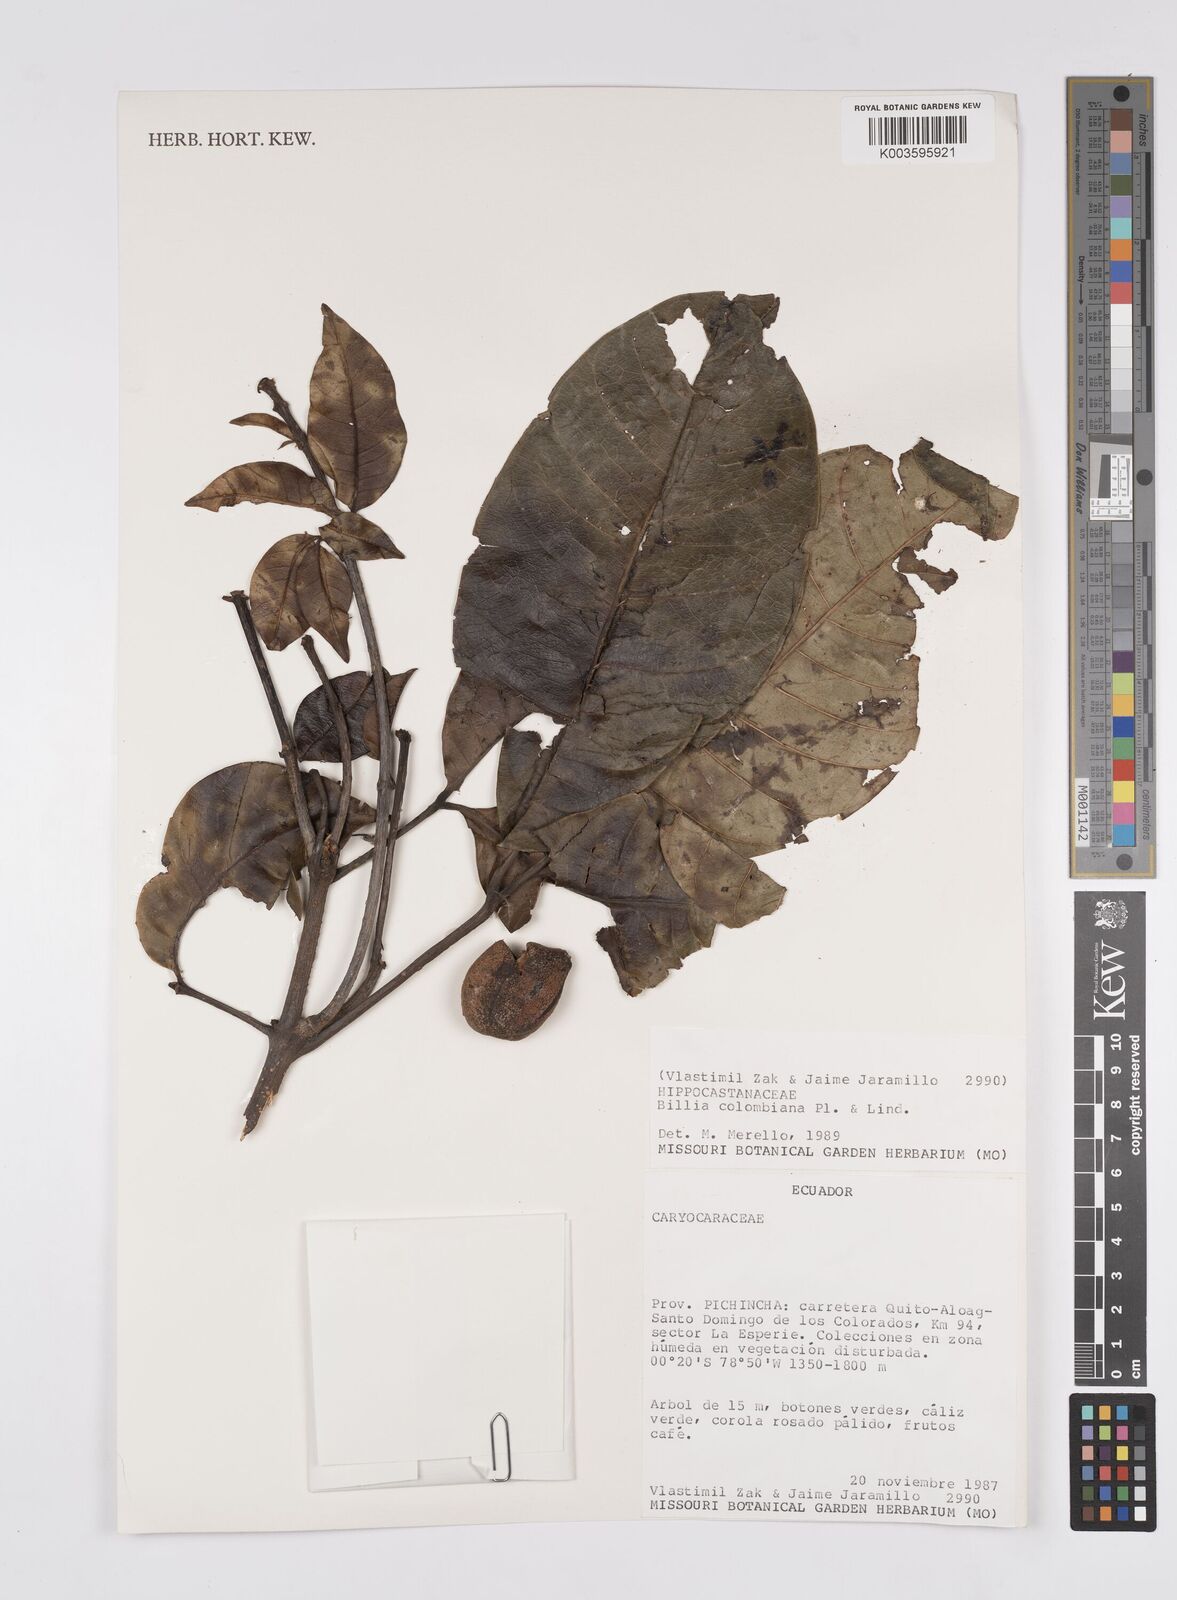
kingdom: Plantae
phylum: Tracheophyta
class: Magnoliopsida
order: Sapindales
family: Sapindaceae
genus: Billia
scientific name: Billia
